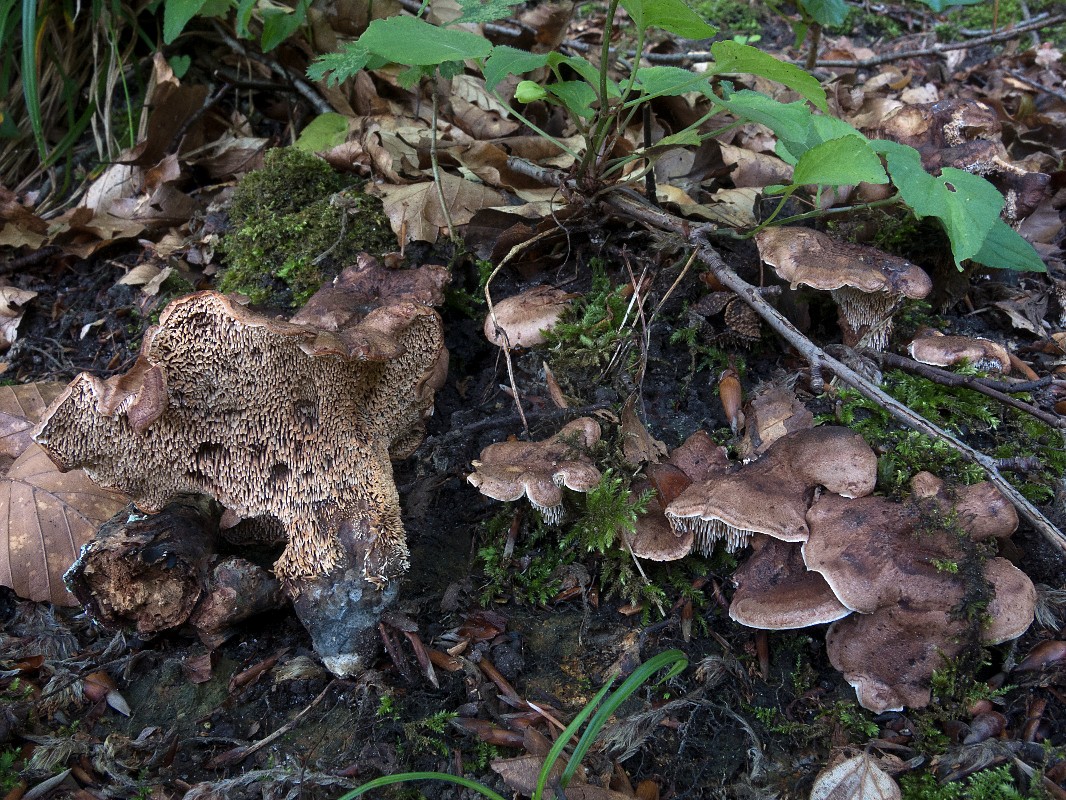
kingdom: Fungi
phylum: Basidiomycota
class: Agaricomycetes
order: Thelephorales
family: Bankeraceae
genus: Hydnellum
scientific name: Hydnellum lepidum
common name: skrænt-korkpigsvamp
